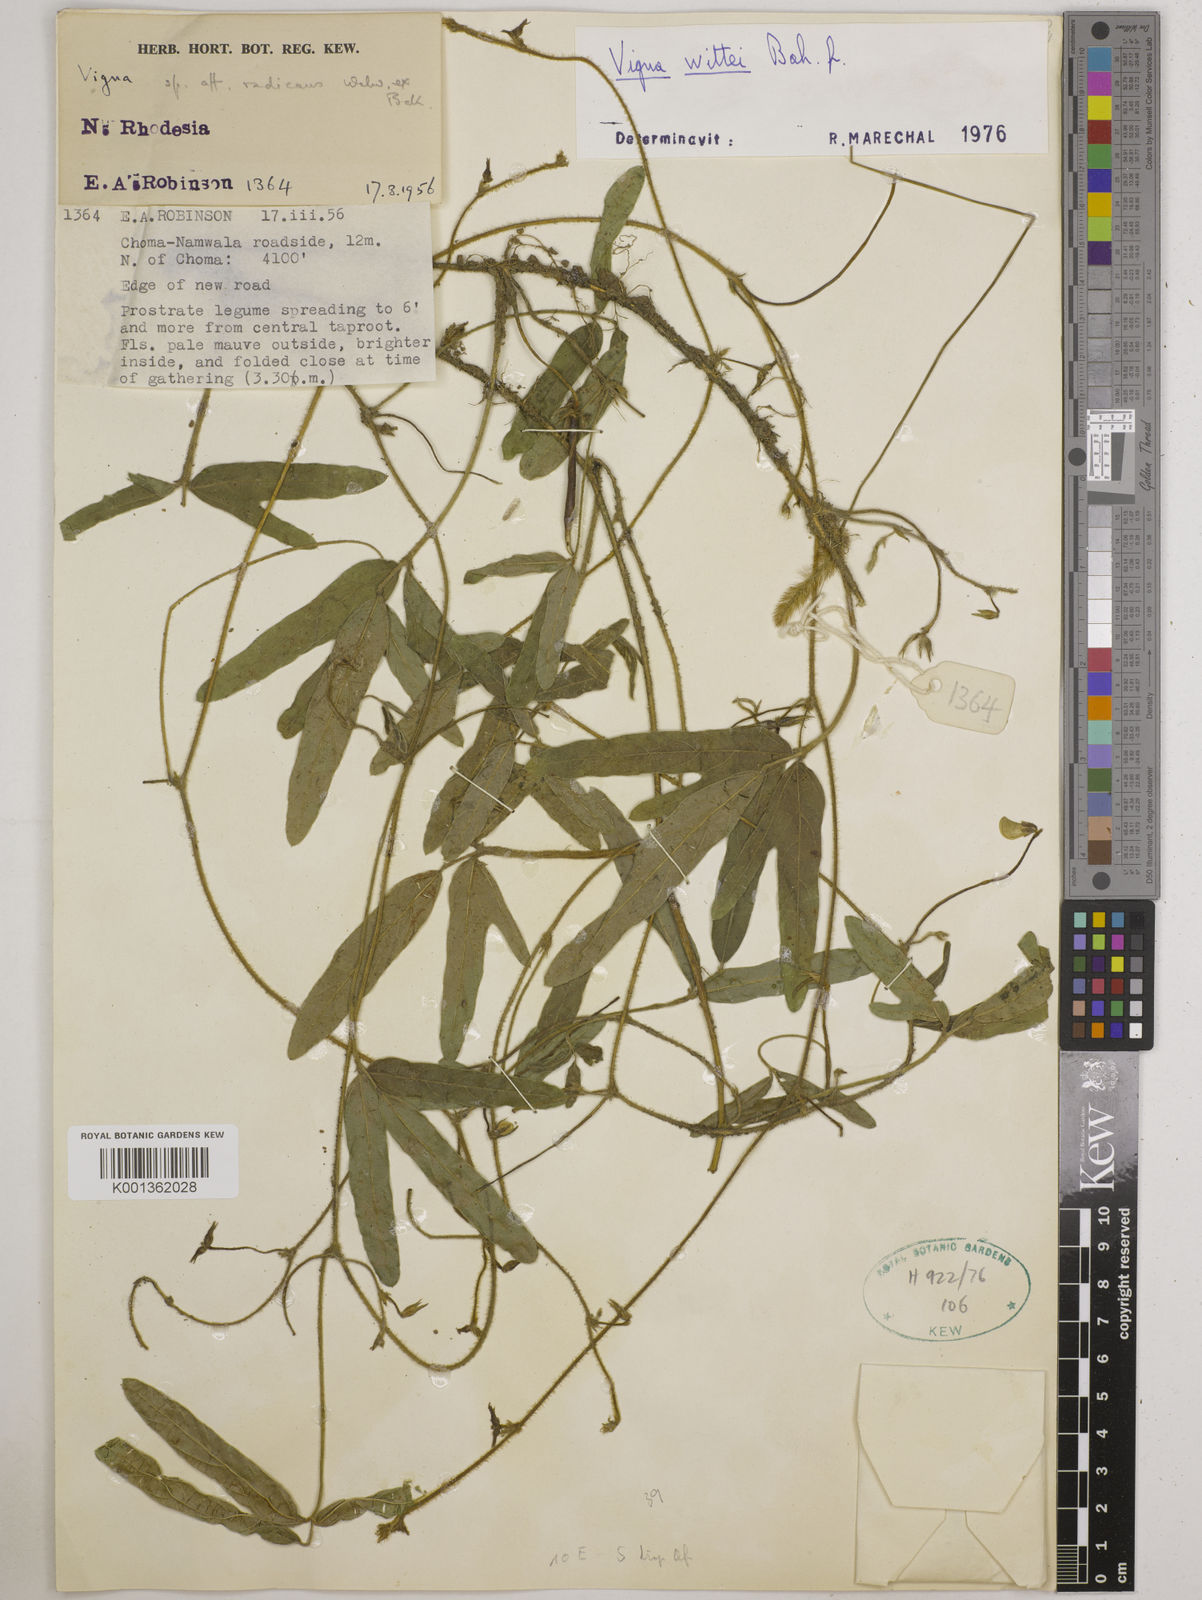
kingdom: Plantae
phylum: Tracheophyta
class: Magnoliopsida
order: Fabales
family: Fabaceae
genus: Vigna
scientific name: Vigna radicans
